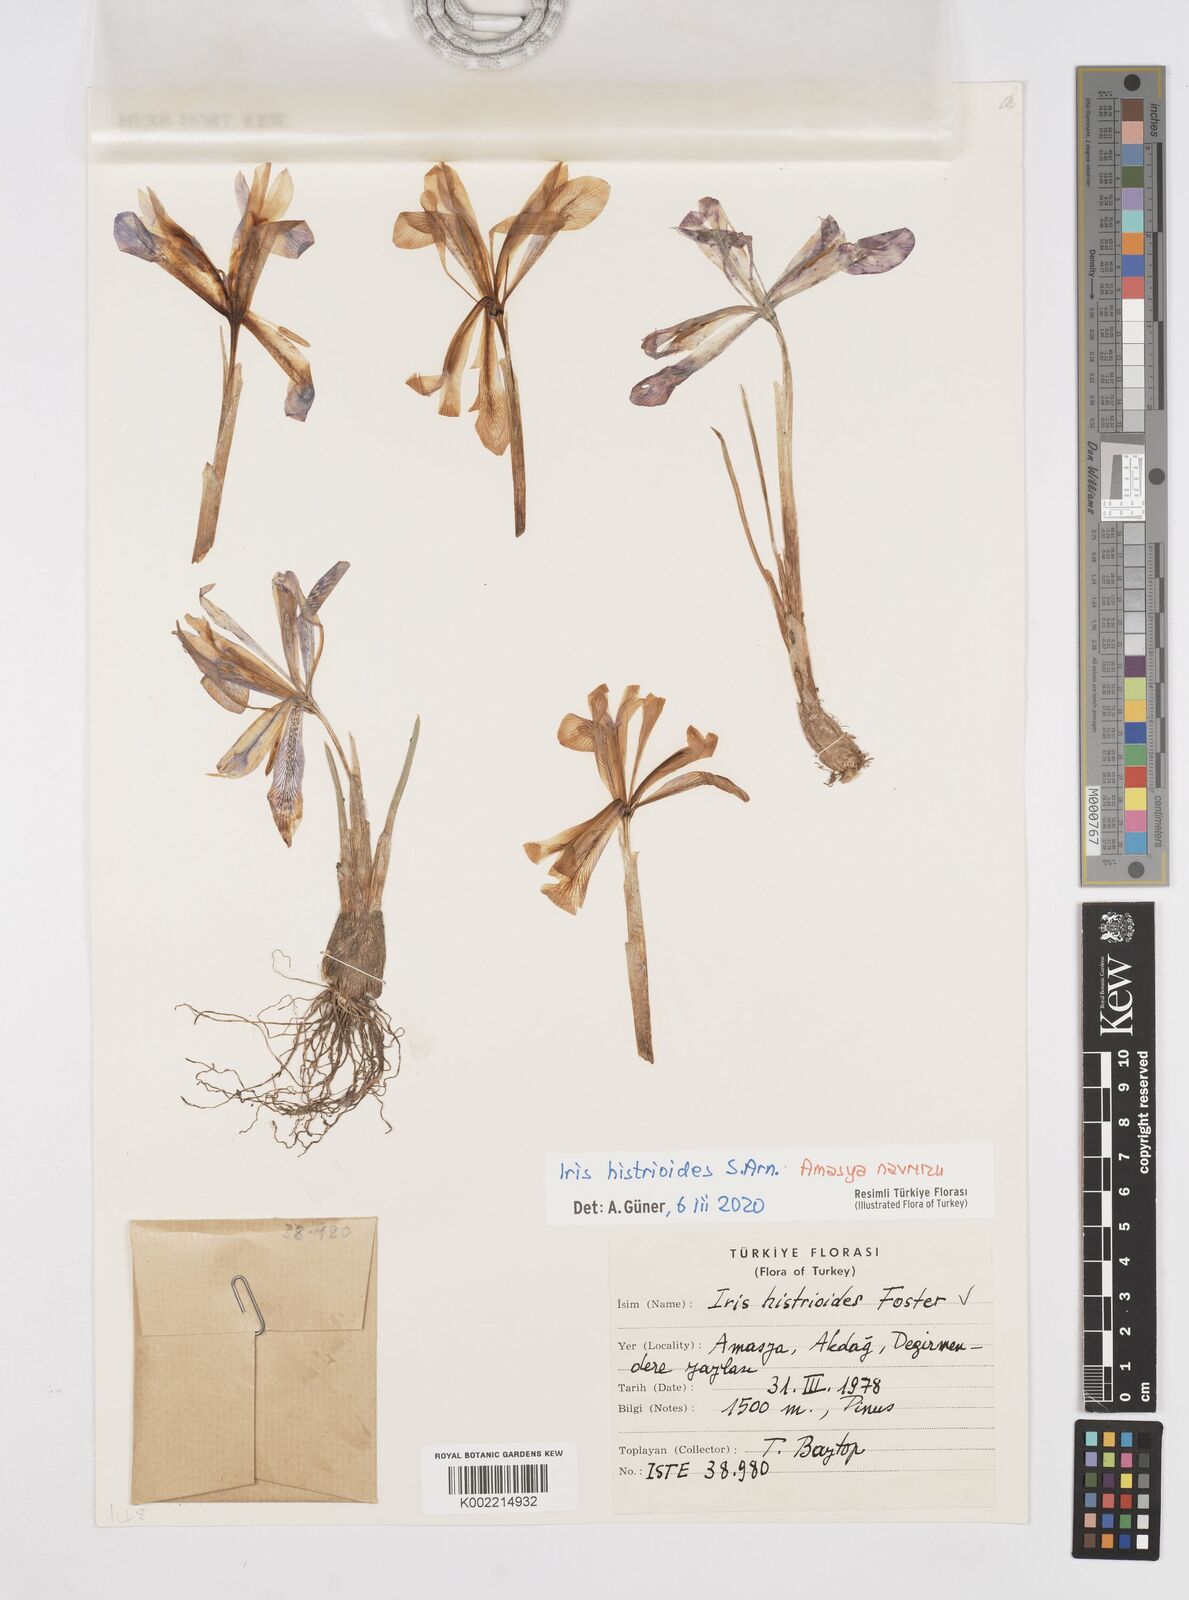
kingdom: Plantae
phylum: Tracheophyta
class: Liliopsida
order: Asparagales
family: Iridaceae
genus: Iris
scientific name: Iris histrioides
